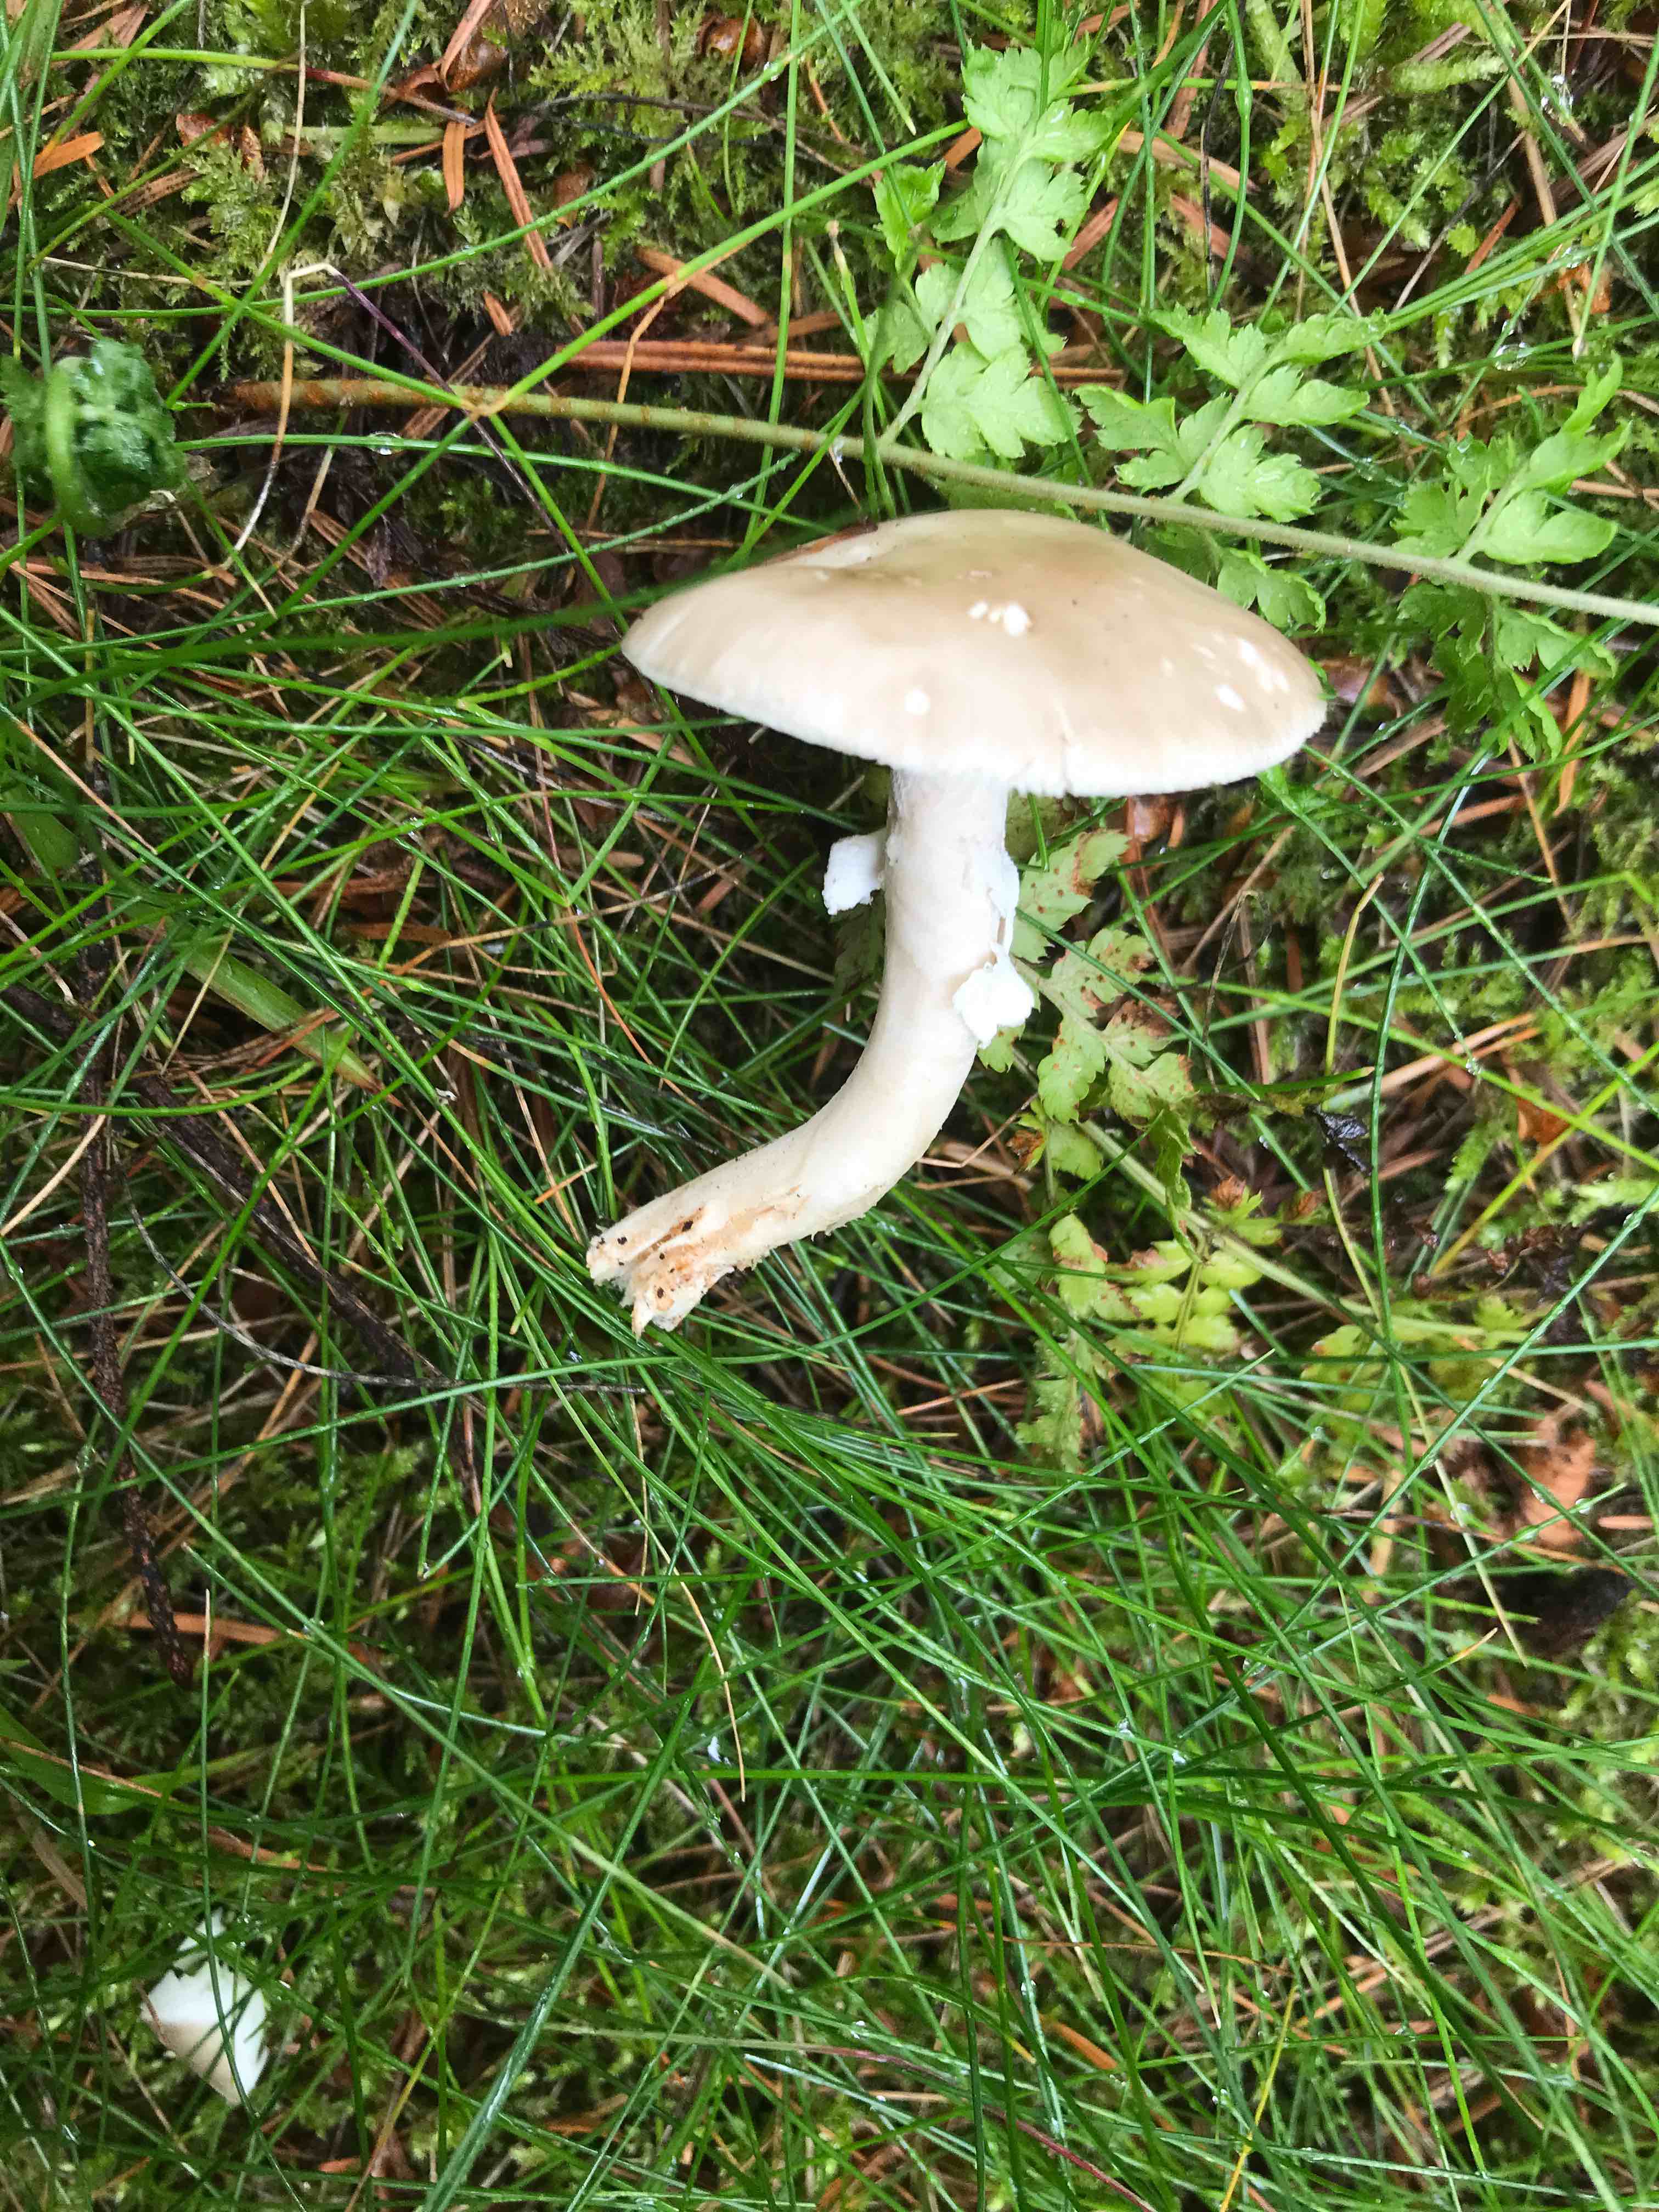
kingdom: Fungi
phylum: Basidiomycota
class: Agaricomycetes
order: Agaricales
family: Amanitaceae
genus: Amanita
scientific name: Amanita
